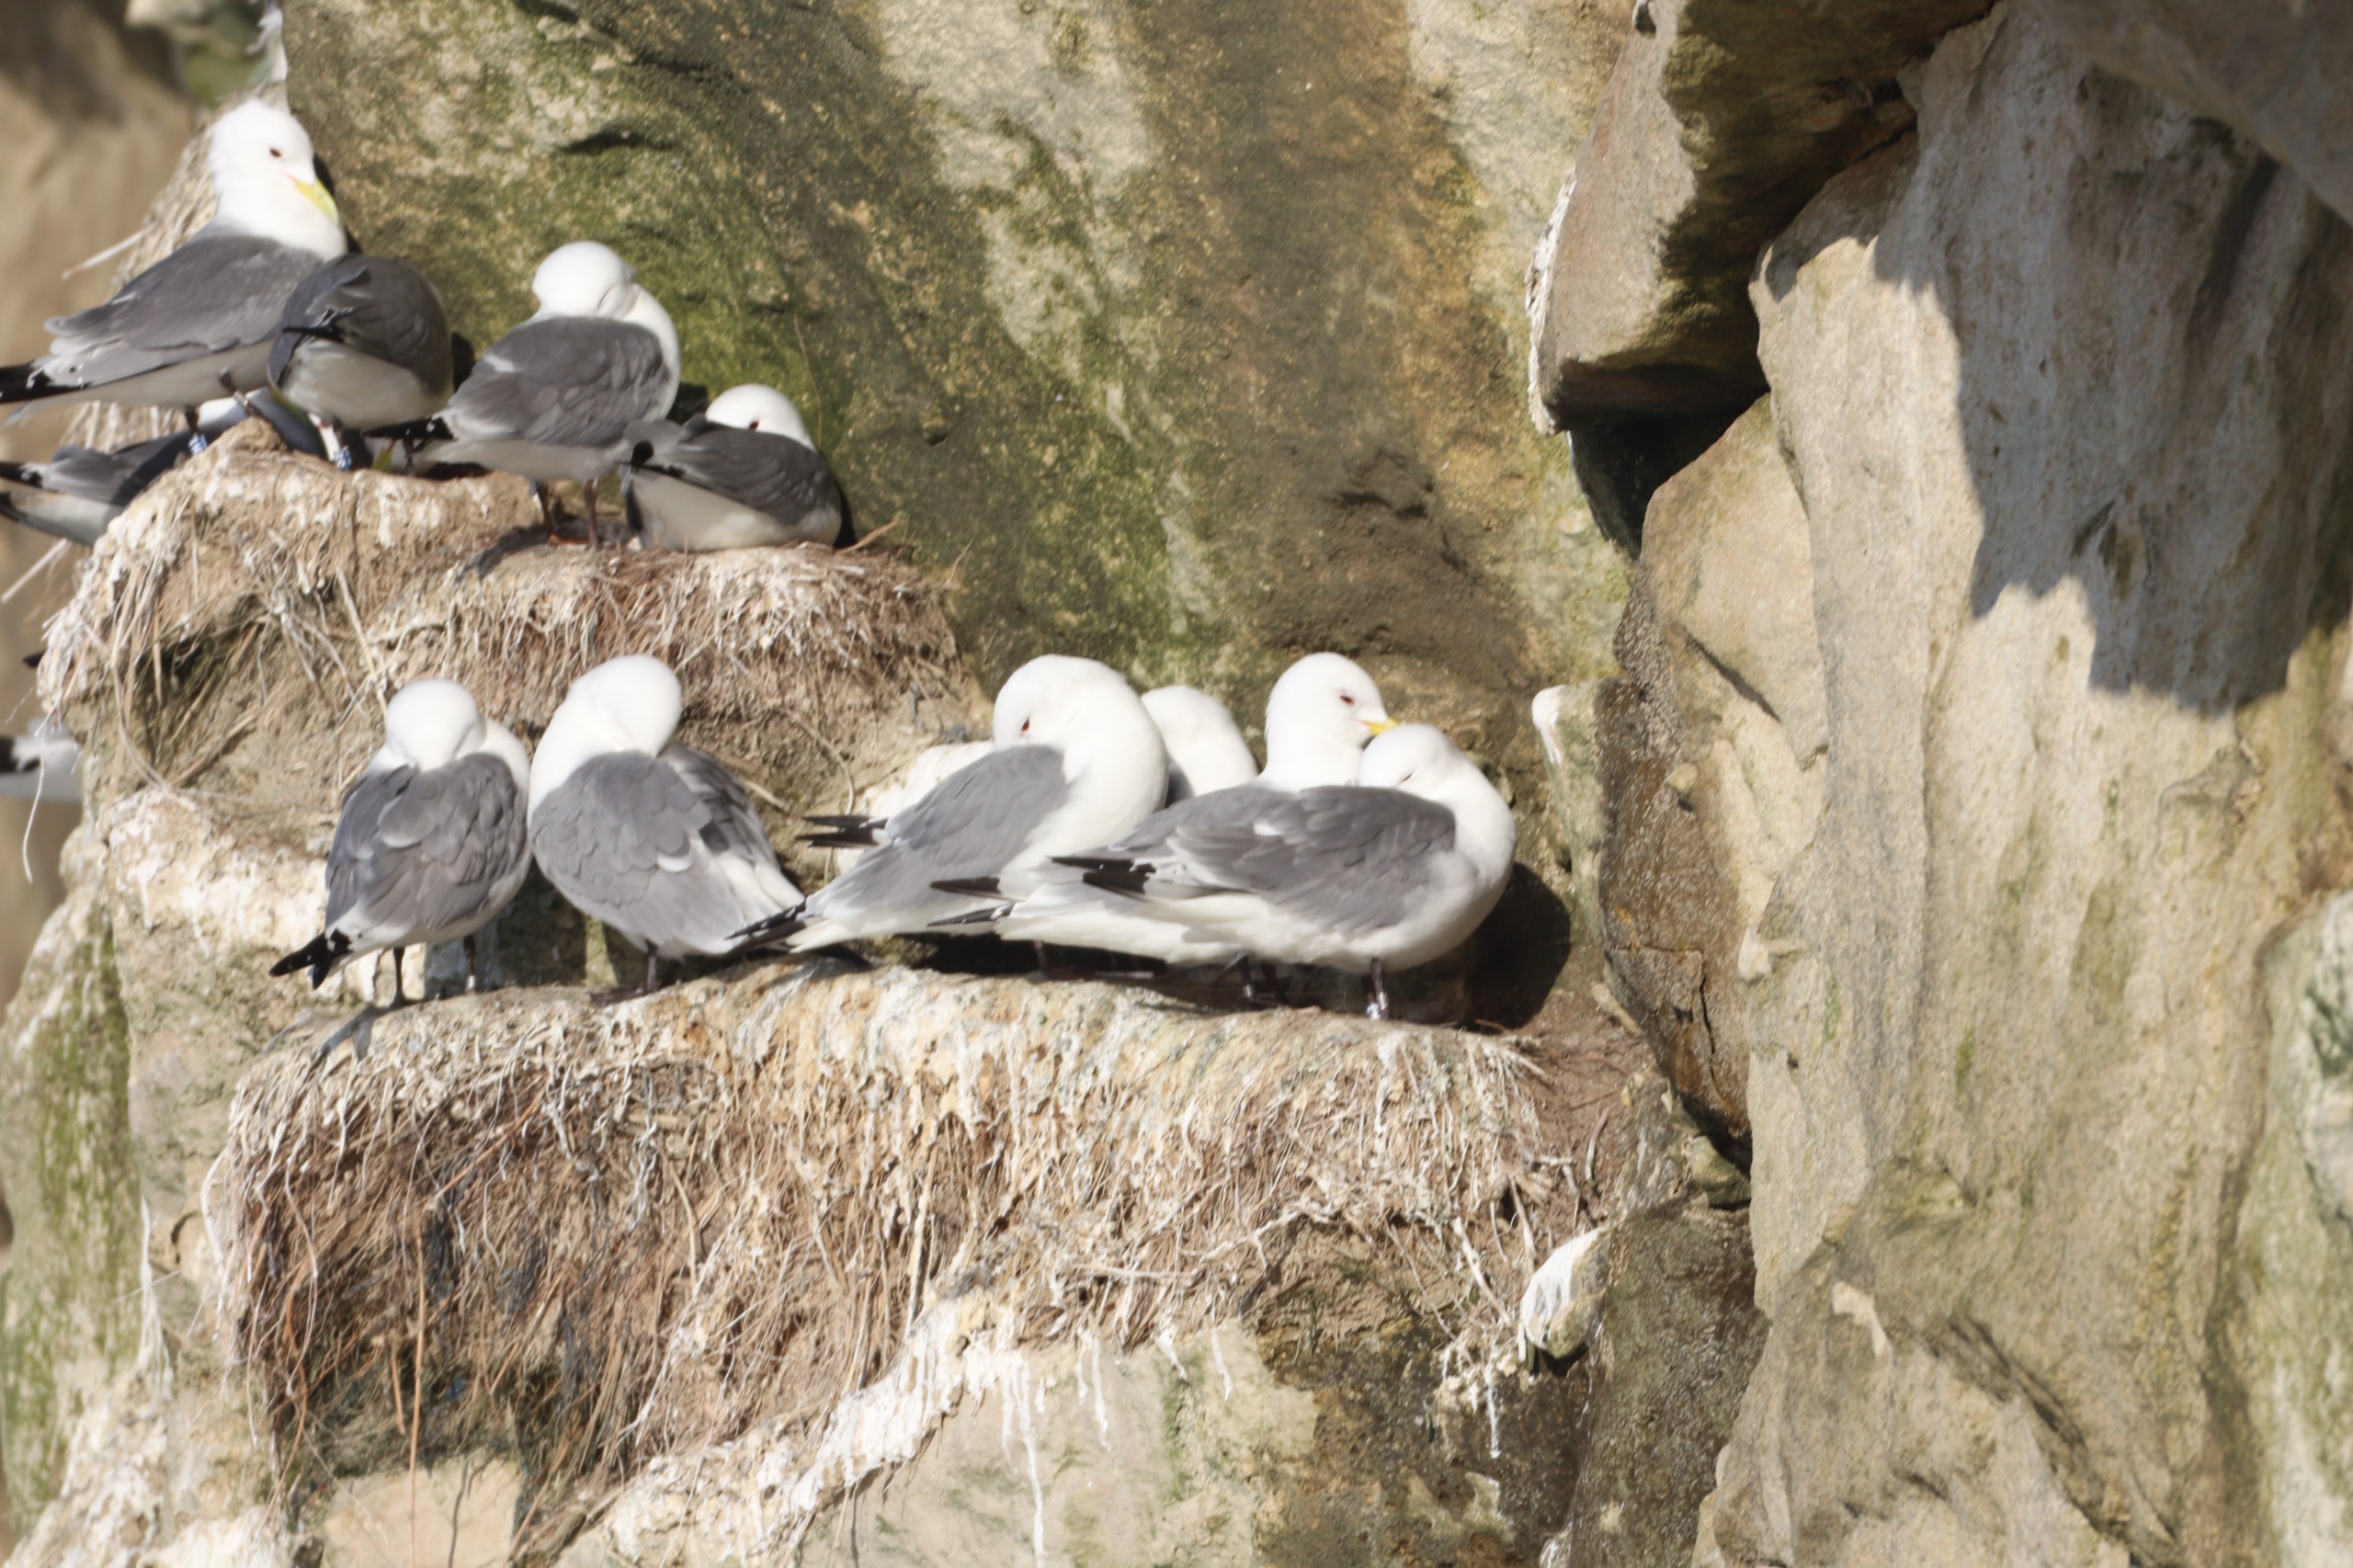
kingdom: Animalia
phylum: Chordata
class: Aves
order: Charadriiformes
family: Laridae
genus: Rissa
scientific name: Rissa tridactyla
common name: Ride
